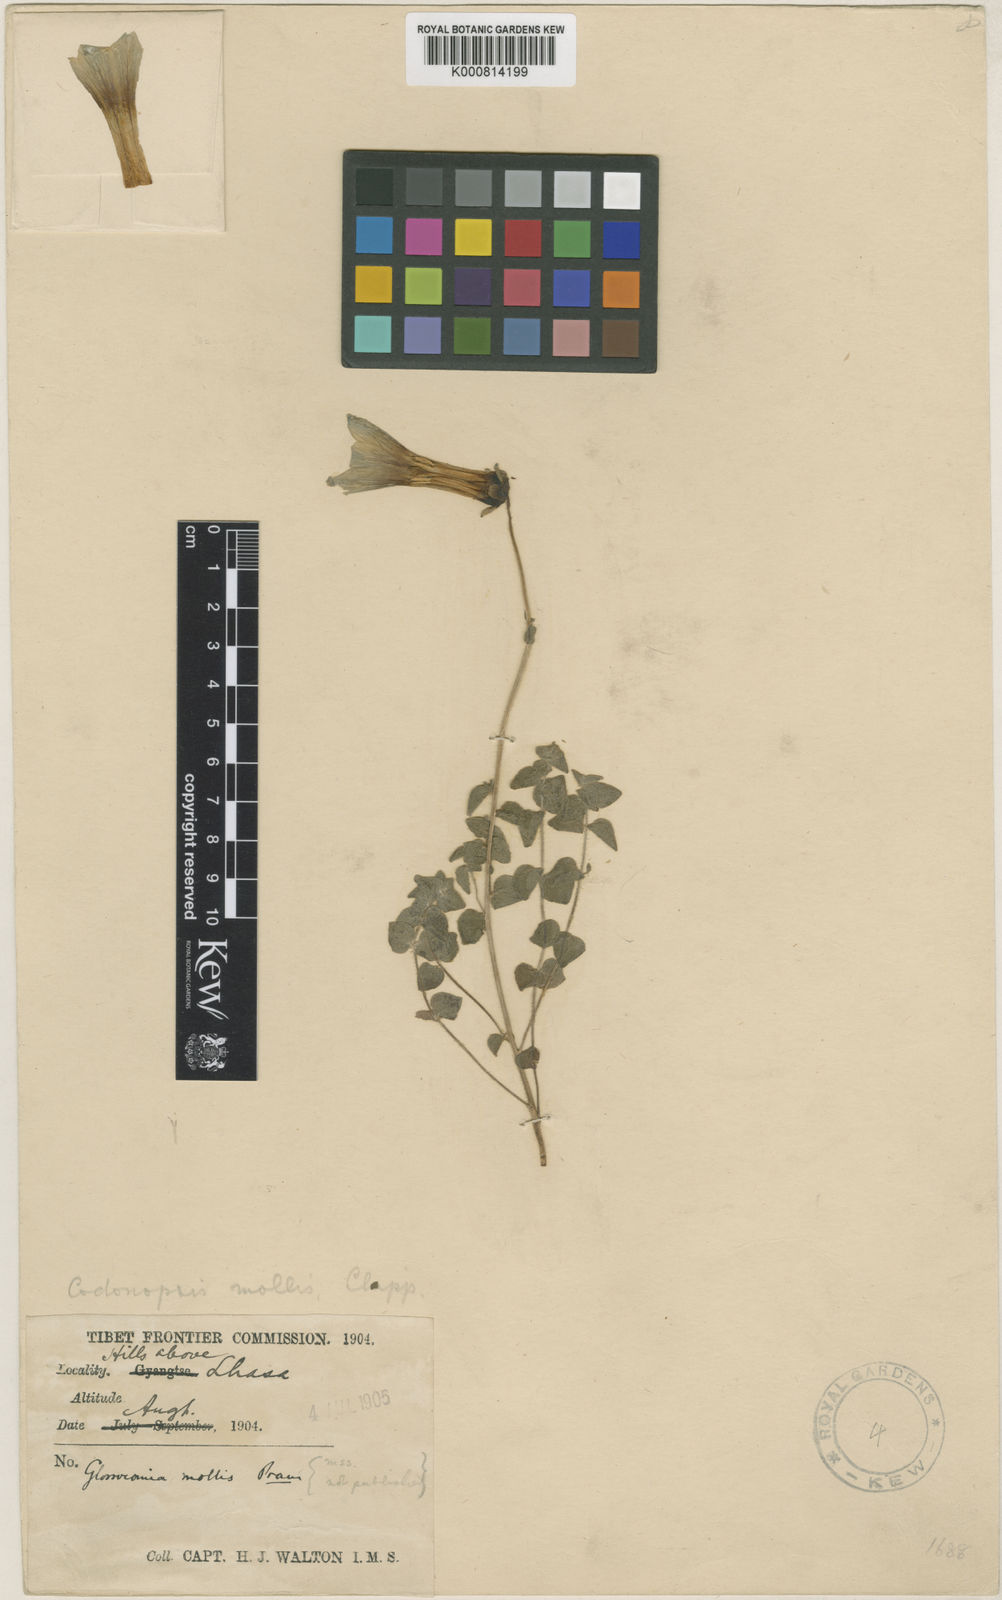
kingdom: Plantae
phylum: Tracheophyta
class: Magnoliopsida
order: Asterales
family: Campanulaceae
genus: Codonopsis
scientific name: Codonopsis thalictrifolia
